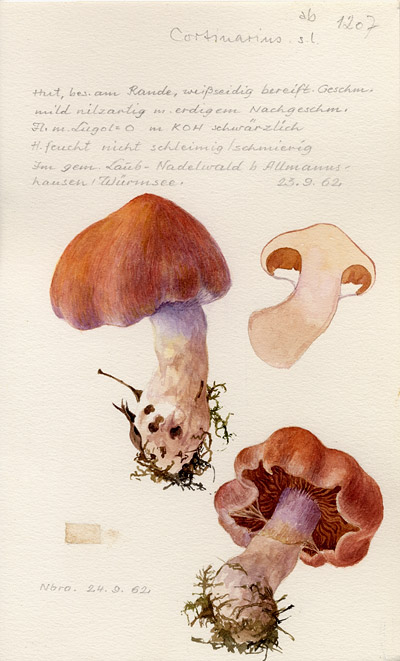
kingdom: Fungi
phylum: Basidiomycota
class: Agaricomycetes
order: Agaricales
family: Cortinariaceae
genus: Cortinarius
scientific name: Cortinarius
